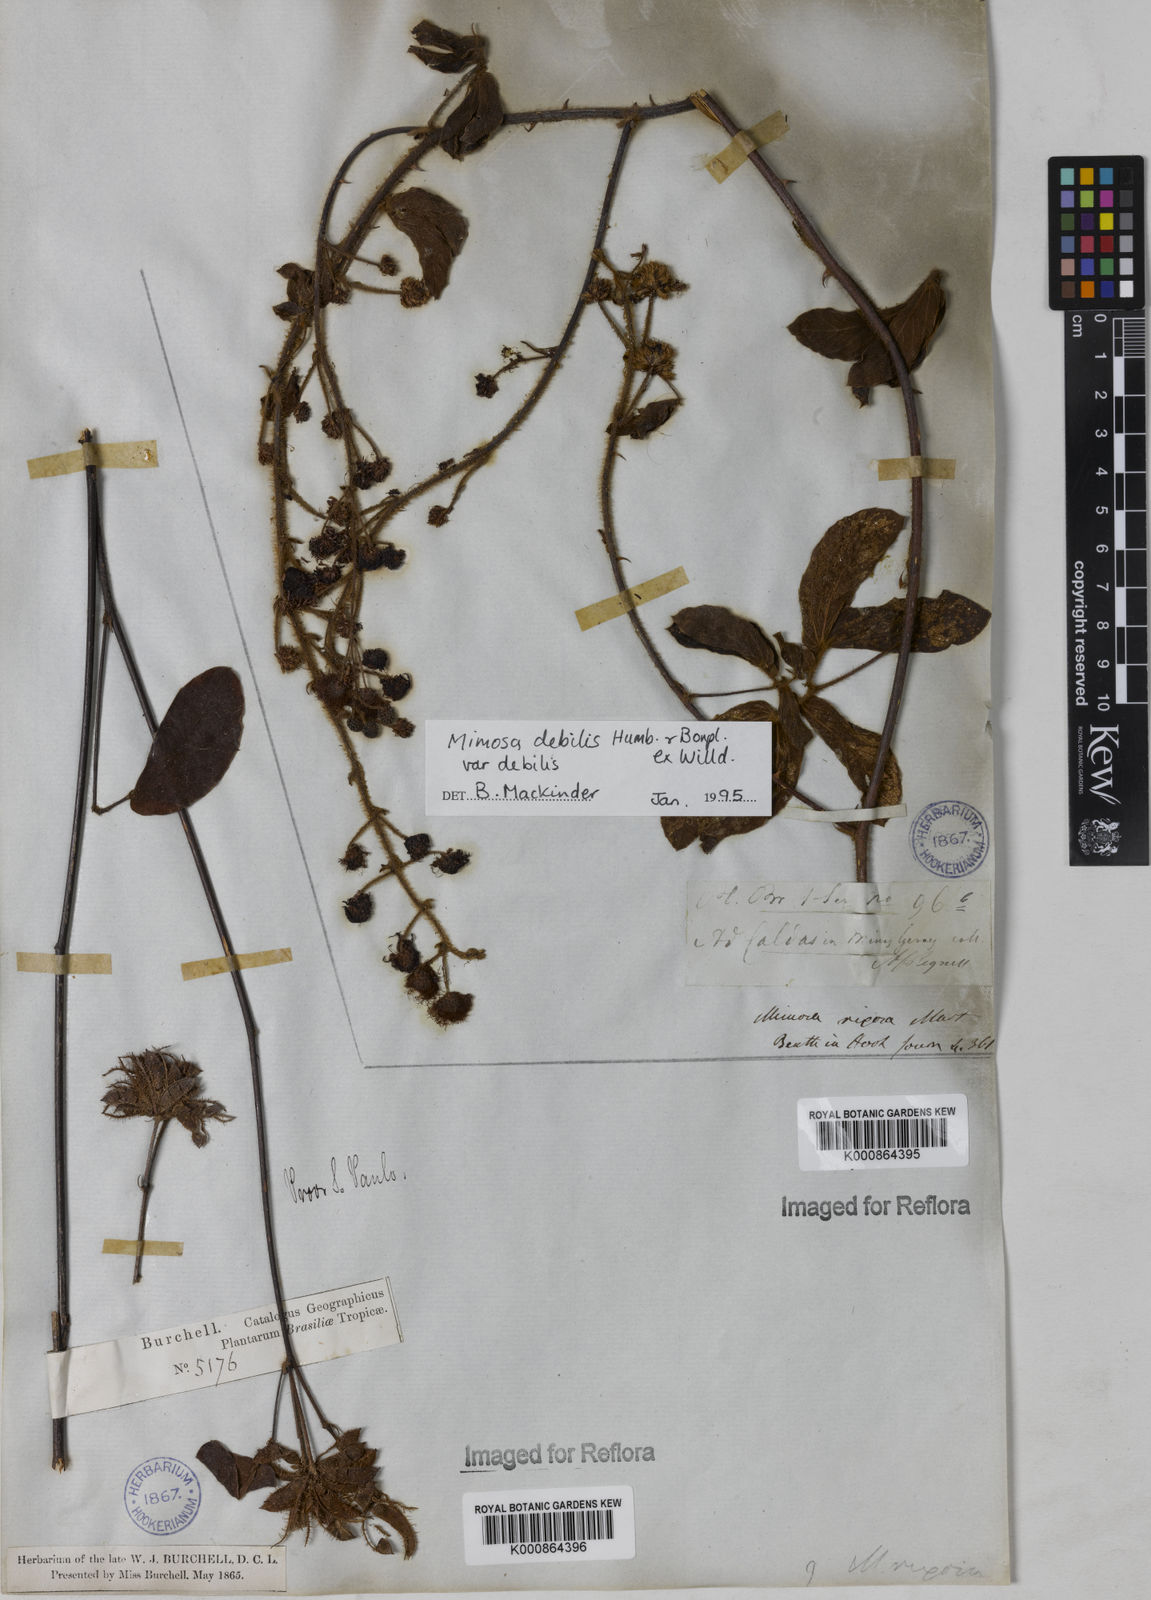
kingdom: Plantae
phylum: Tracheophyta
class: Magnoliopsida
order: Fabales
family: Fabaceae
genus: Mimosa
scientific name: Mimosa debilis
